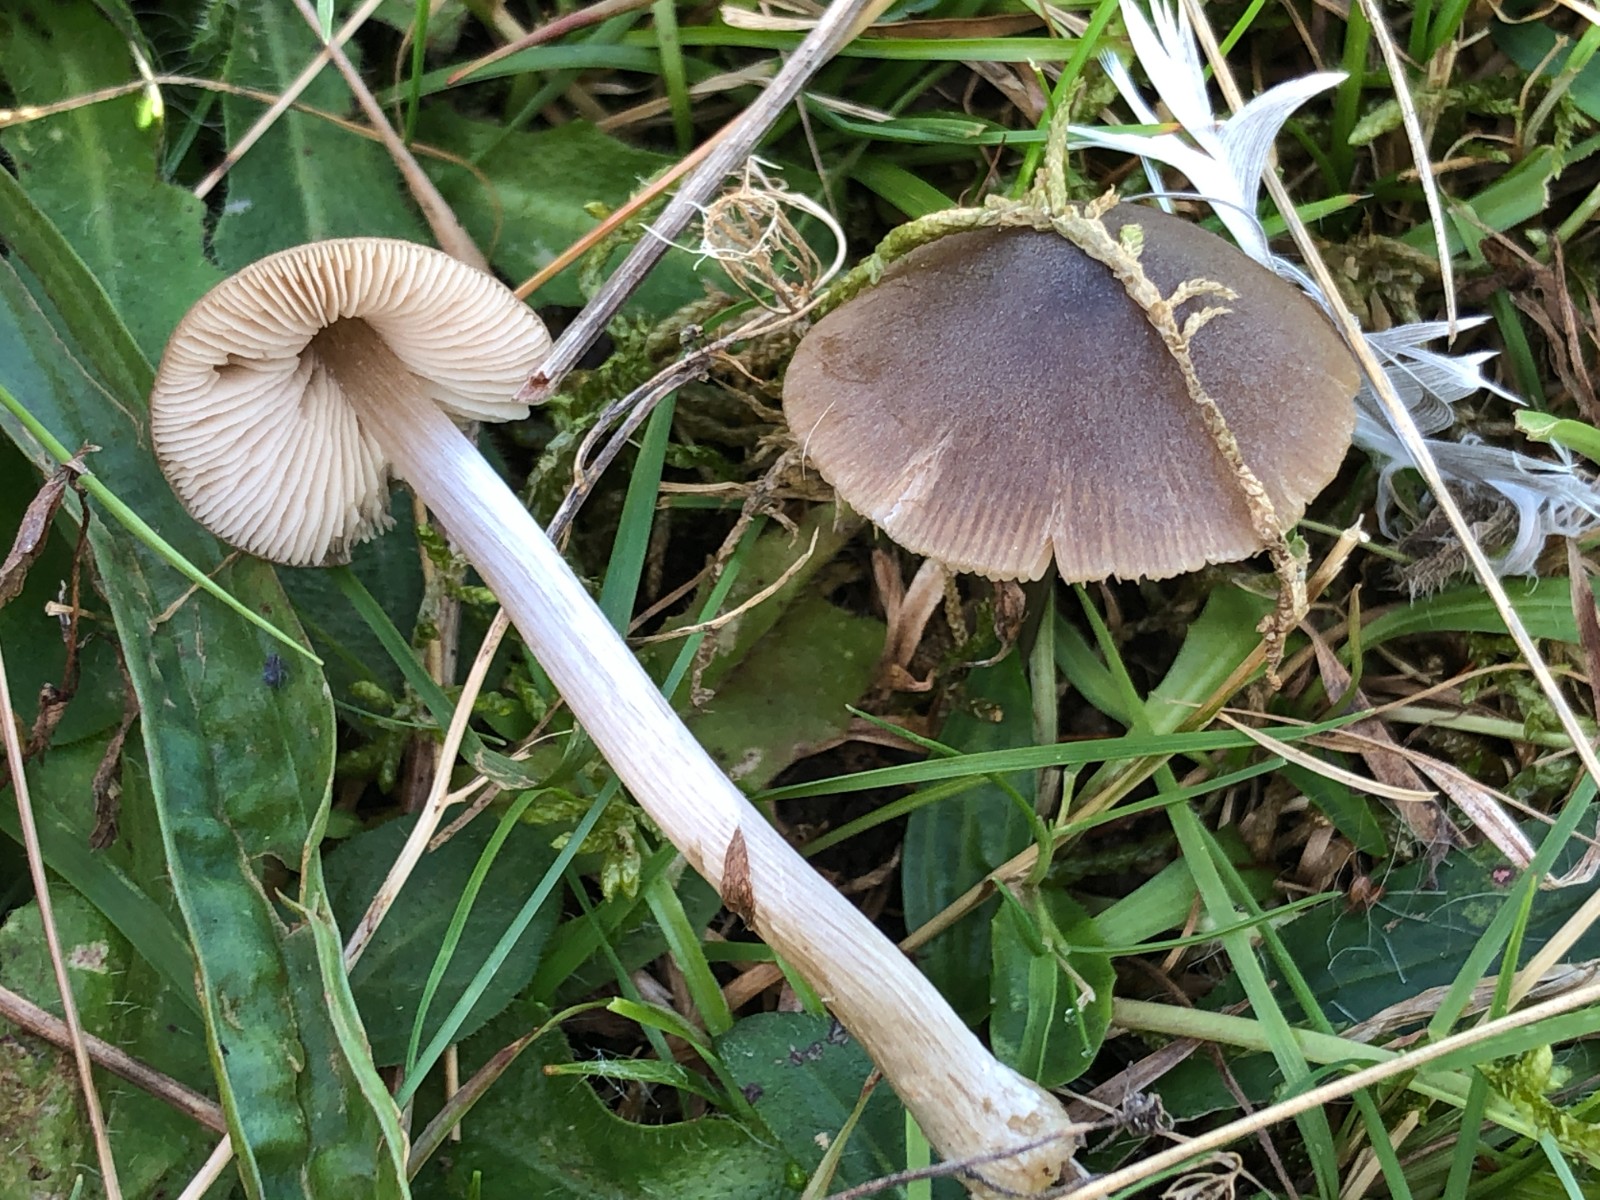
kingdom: Fungi
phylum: Basidiomycota
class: Agaricomycetes
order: Agaricales
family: Entolomataceae
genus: Entoloma
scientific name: Entoloma
